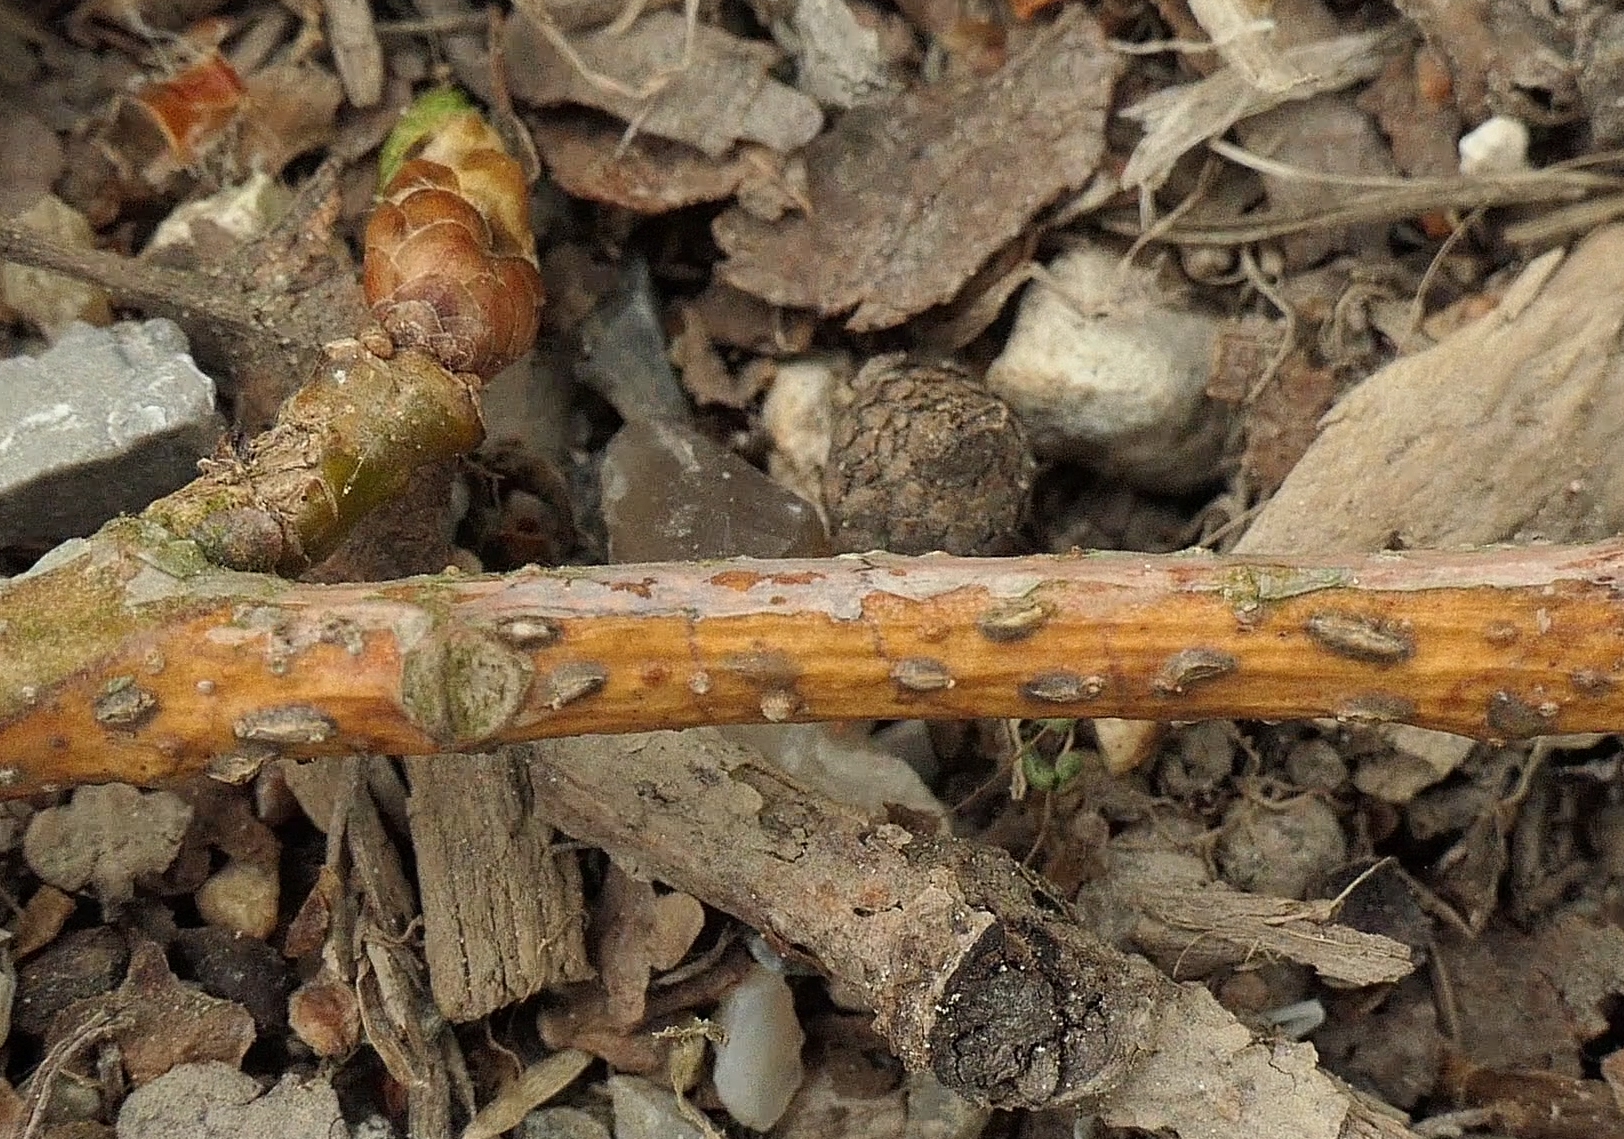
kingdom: Fungi
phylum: Ascomycota
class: Leotiomycetes
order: Rhytismatales
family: Rhytismataceae
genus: Colpoma
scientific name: Colpoma quercinum
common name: ege-sprækkeskive
